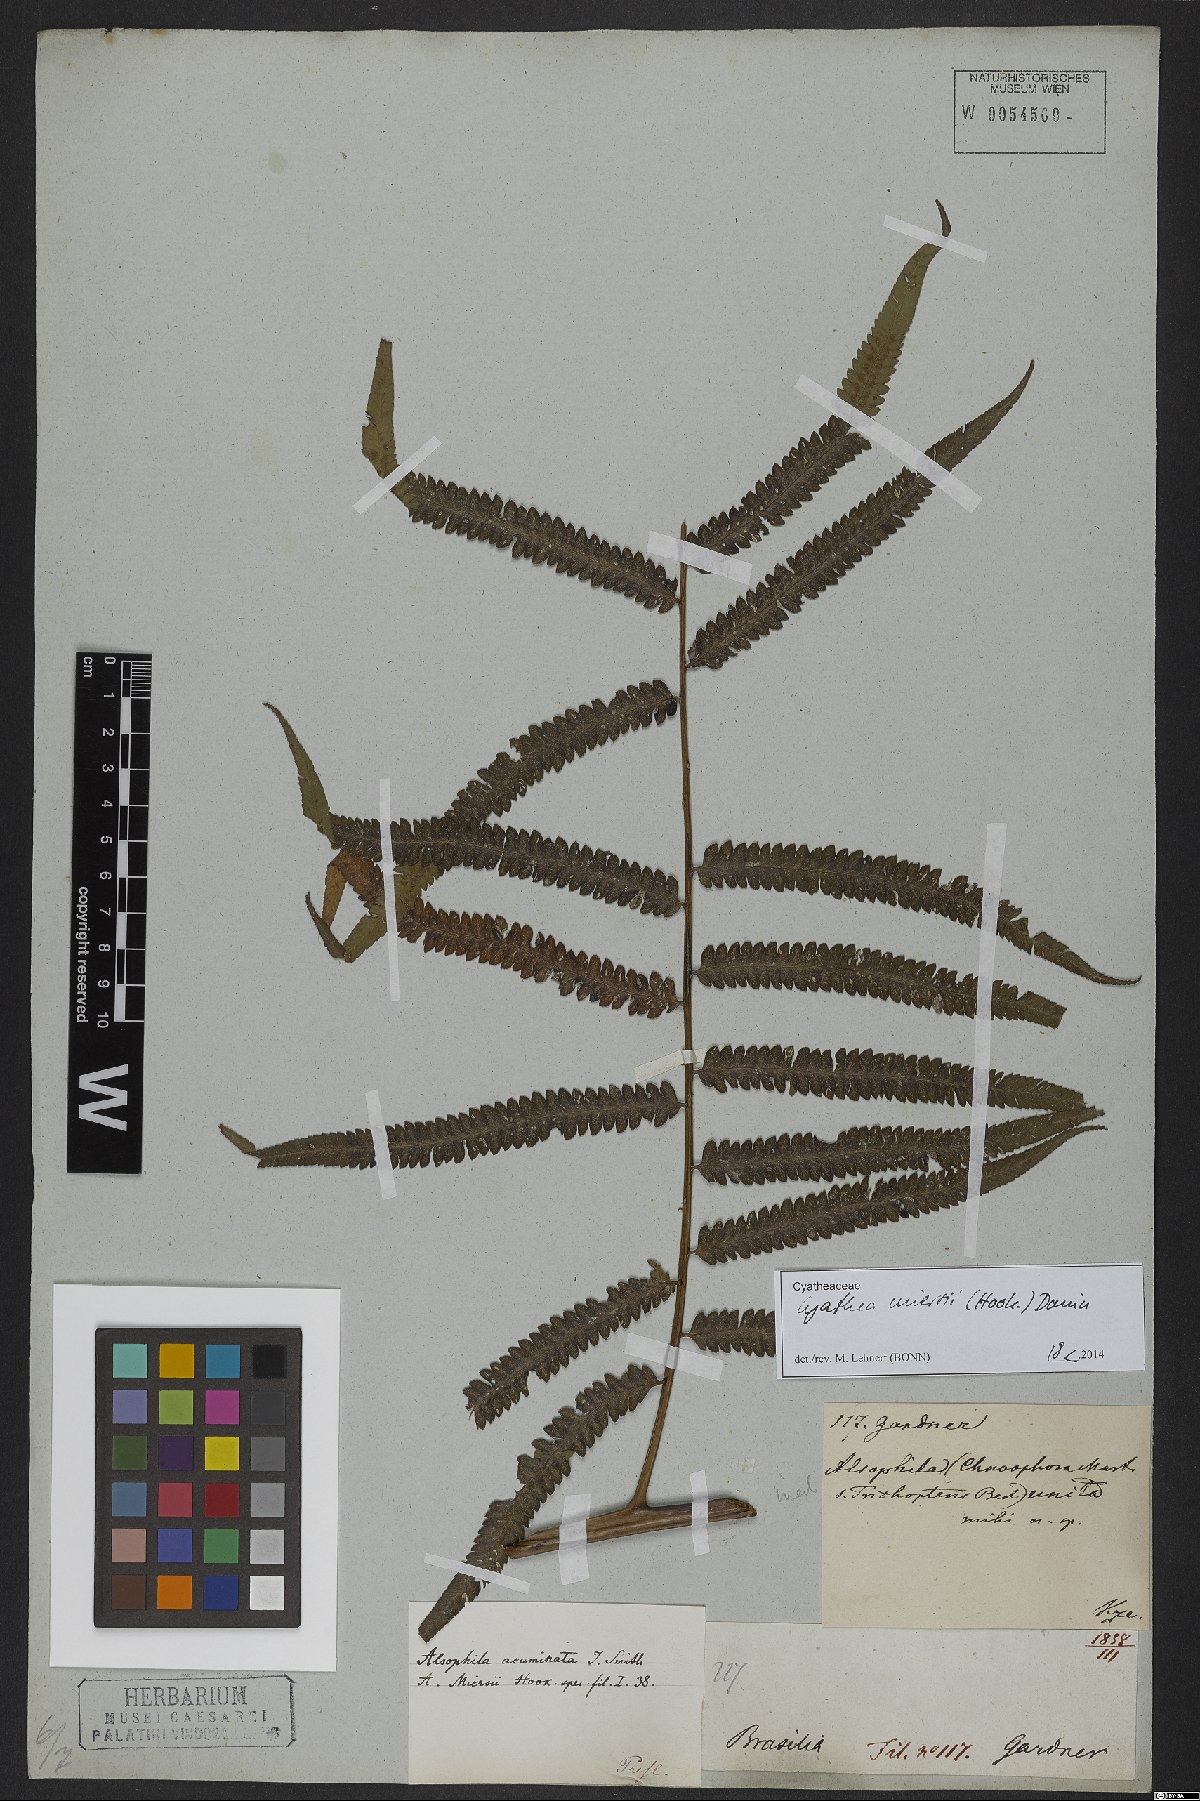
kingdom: Plantae
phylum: Tracheophyta
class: Polypodiopsida
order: Cyatheales
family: Cyatheaceae
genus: Cyathea
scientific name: Cyathea miersii
